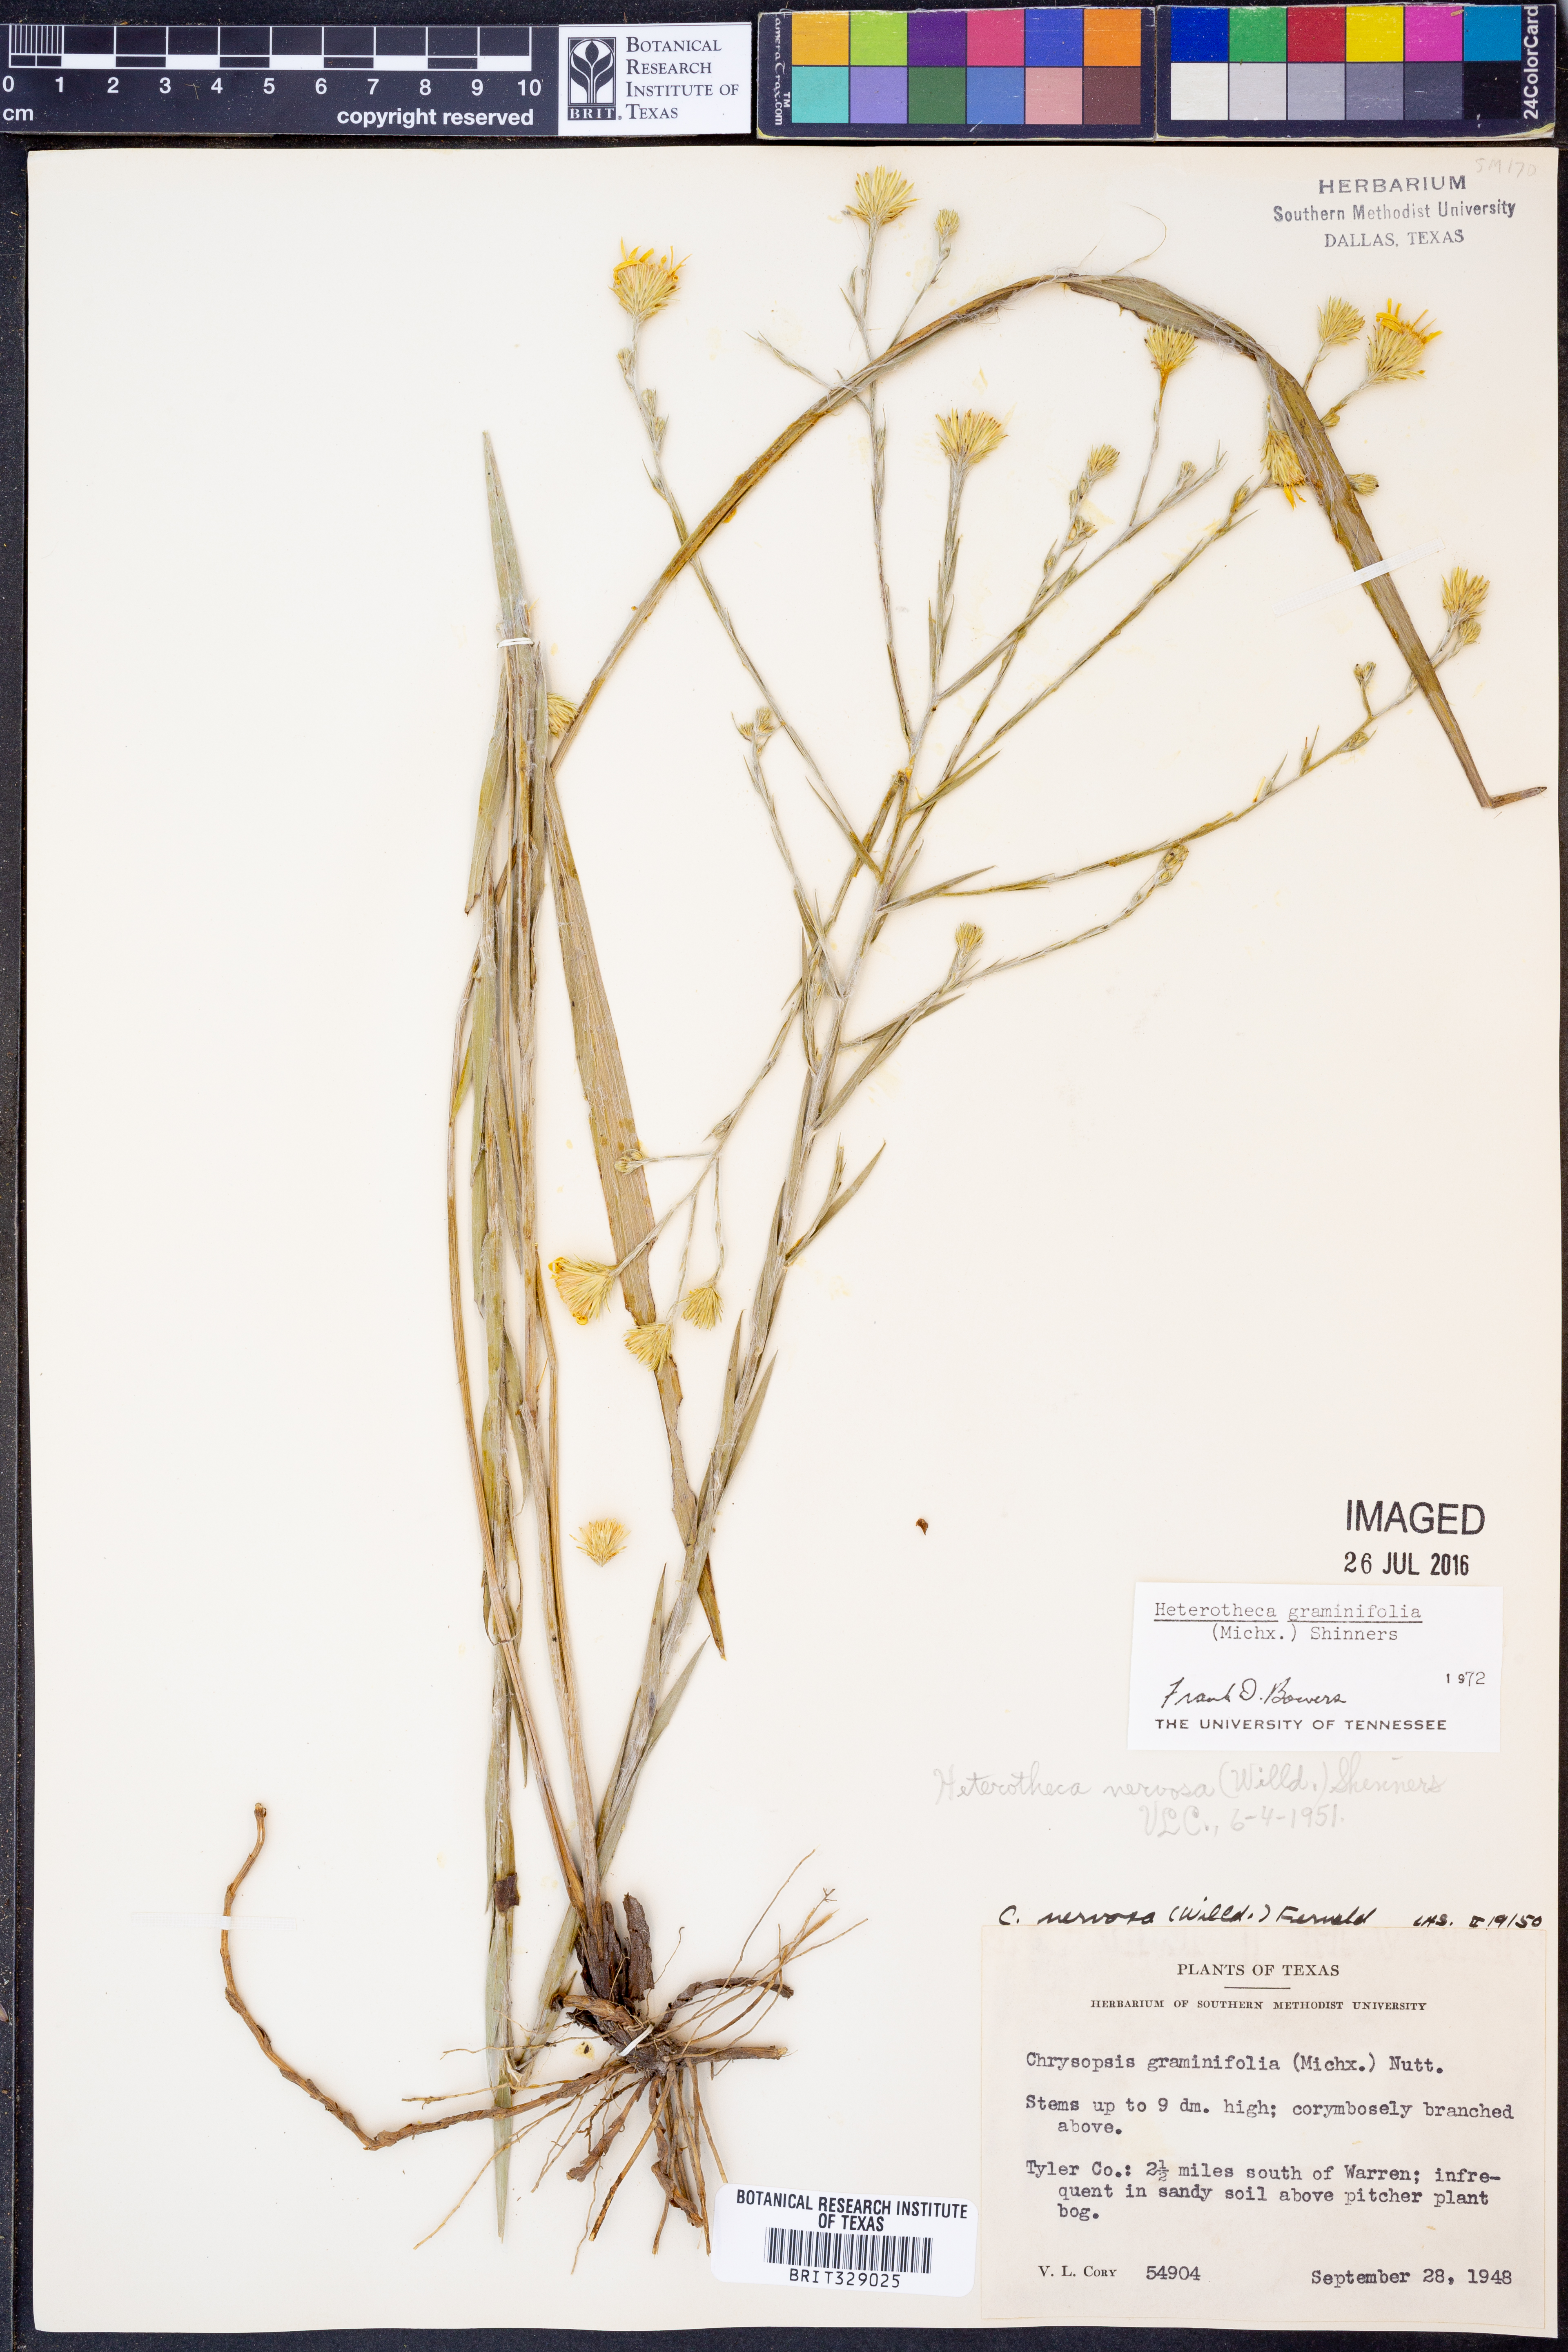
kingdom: Plantae
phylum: Tracheophyta
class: Magnoliopsida
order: Asterales
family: Asteraceae
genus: Pityopsis
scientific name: Pityopsis graminifolia
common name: Grass-leaf golden-aster
